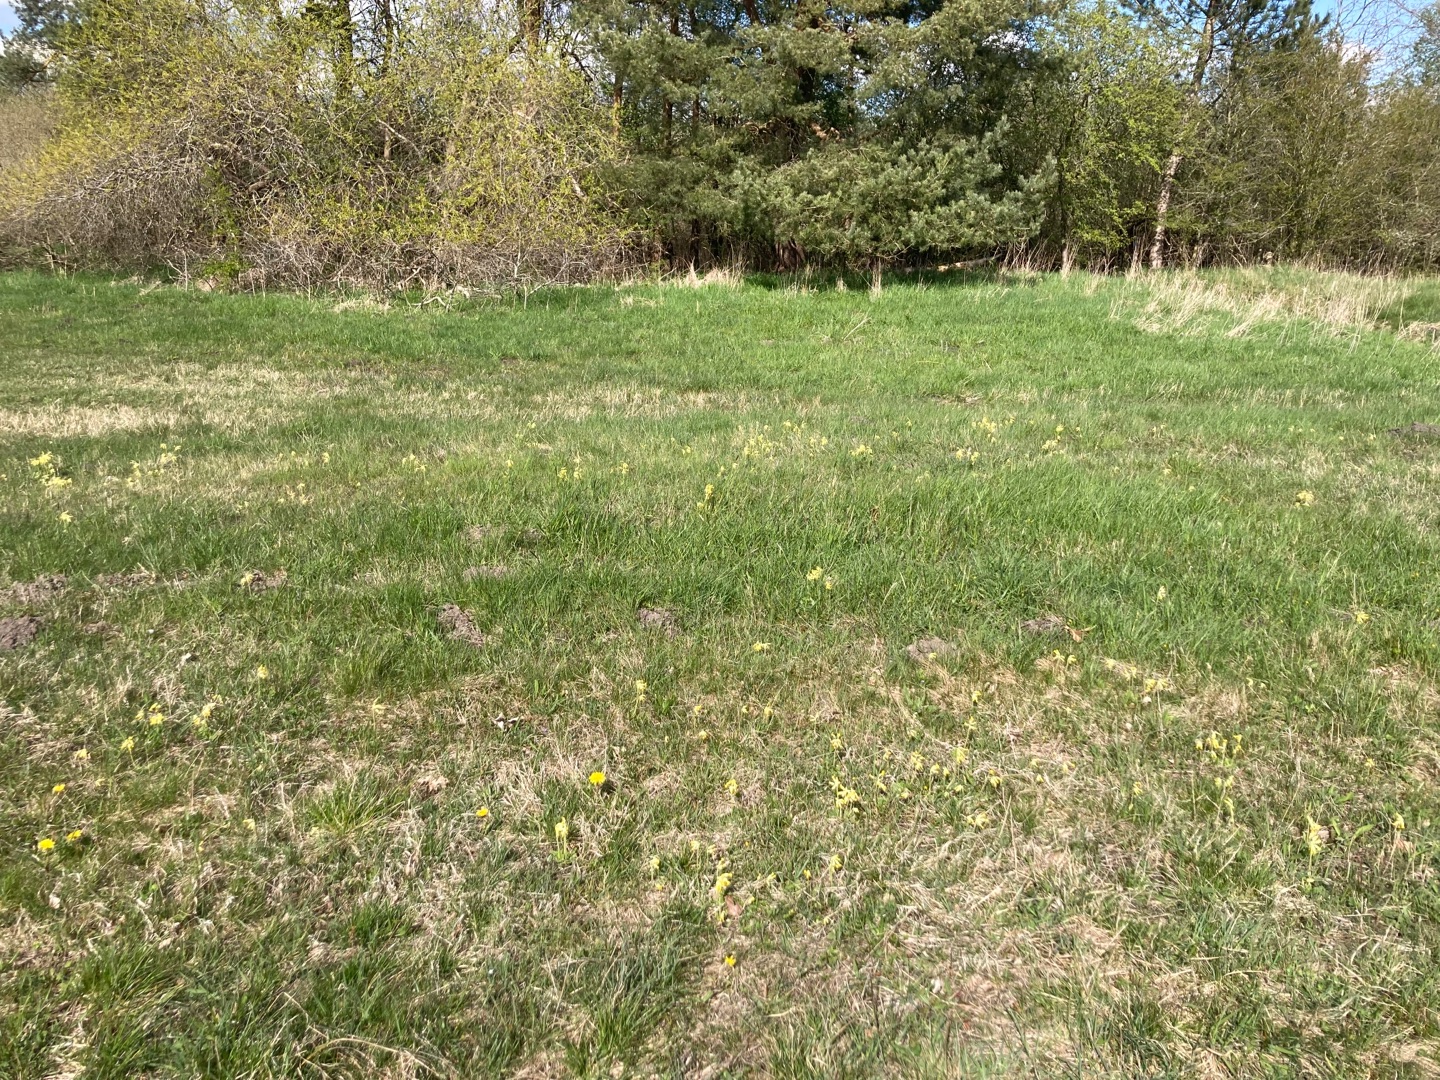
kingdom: Plantae
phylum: Tracheophyta
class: Magnoliopsida
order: Ericales
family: Primulaceae
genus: Primula
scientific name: Primula veris
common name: Hulkravet kodriver
